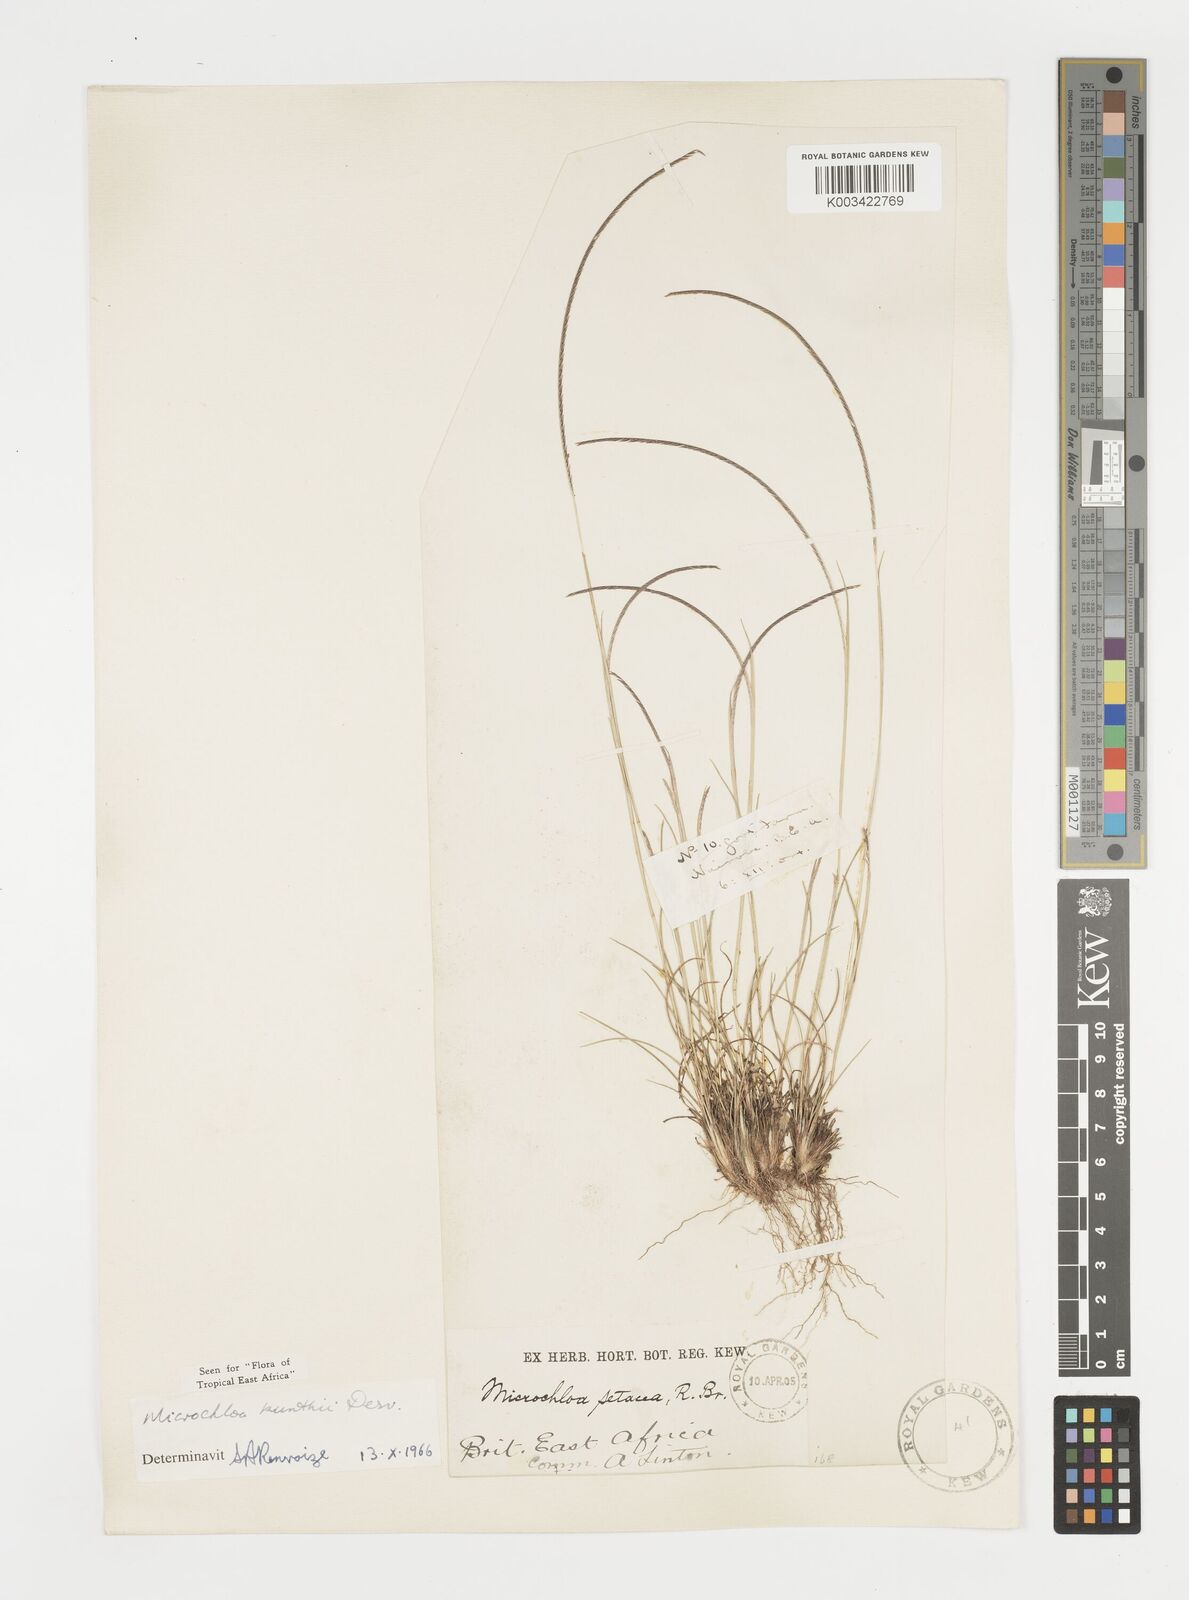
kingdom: Plantae
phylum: Tracheophyta
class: Liliopsida
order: Poales
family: Poaceae
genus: Microchloa
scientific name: Microchloa kunthii
